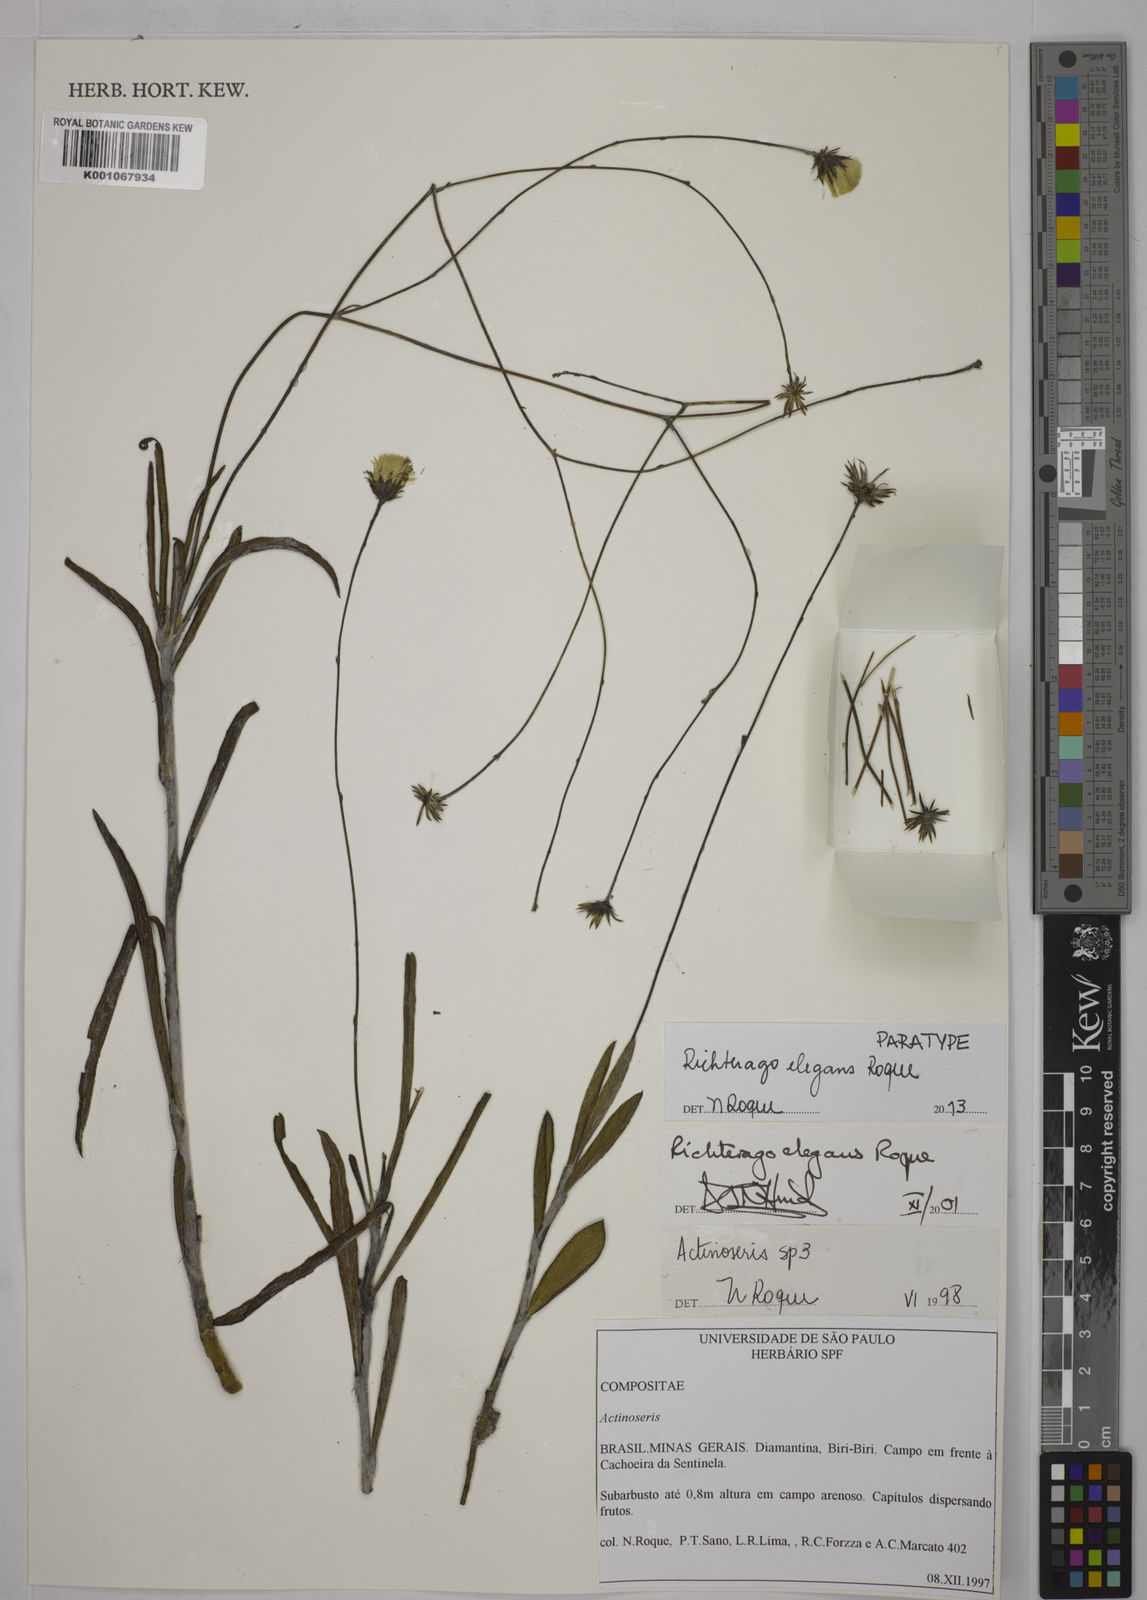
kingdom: Plantae
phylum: Tracheophyta
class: Magnoliopsida
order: Asterales
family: Asteraceae
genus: Richterago
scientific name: Richterago elegans
